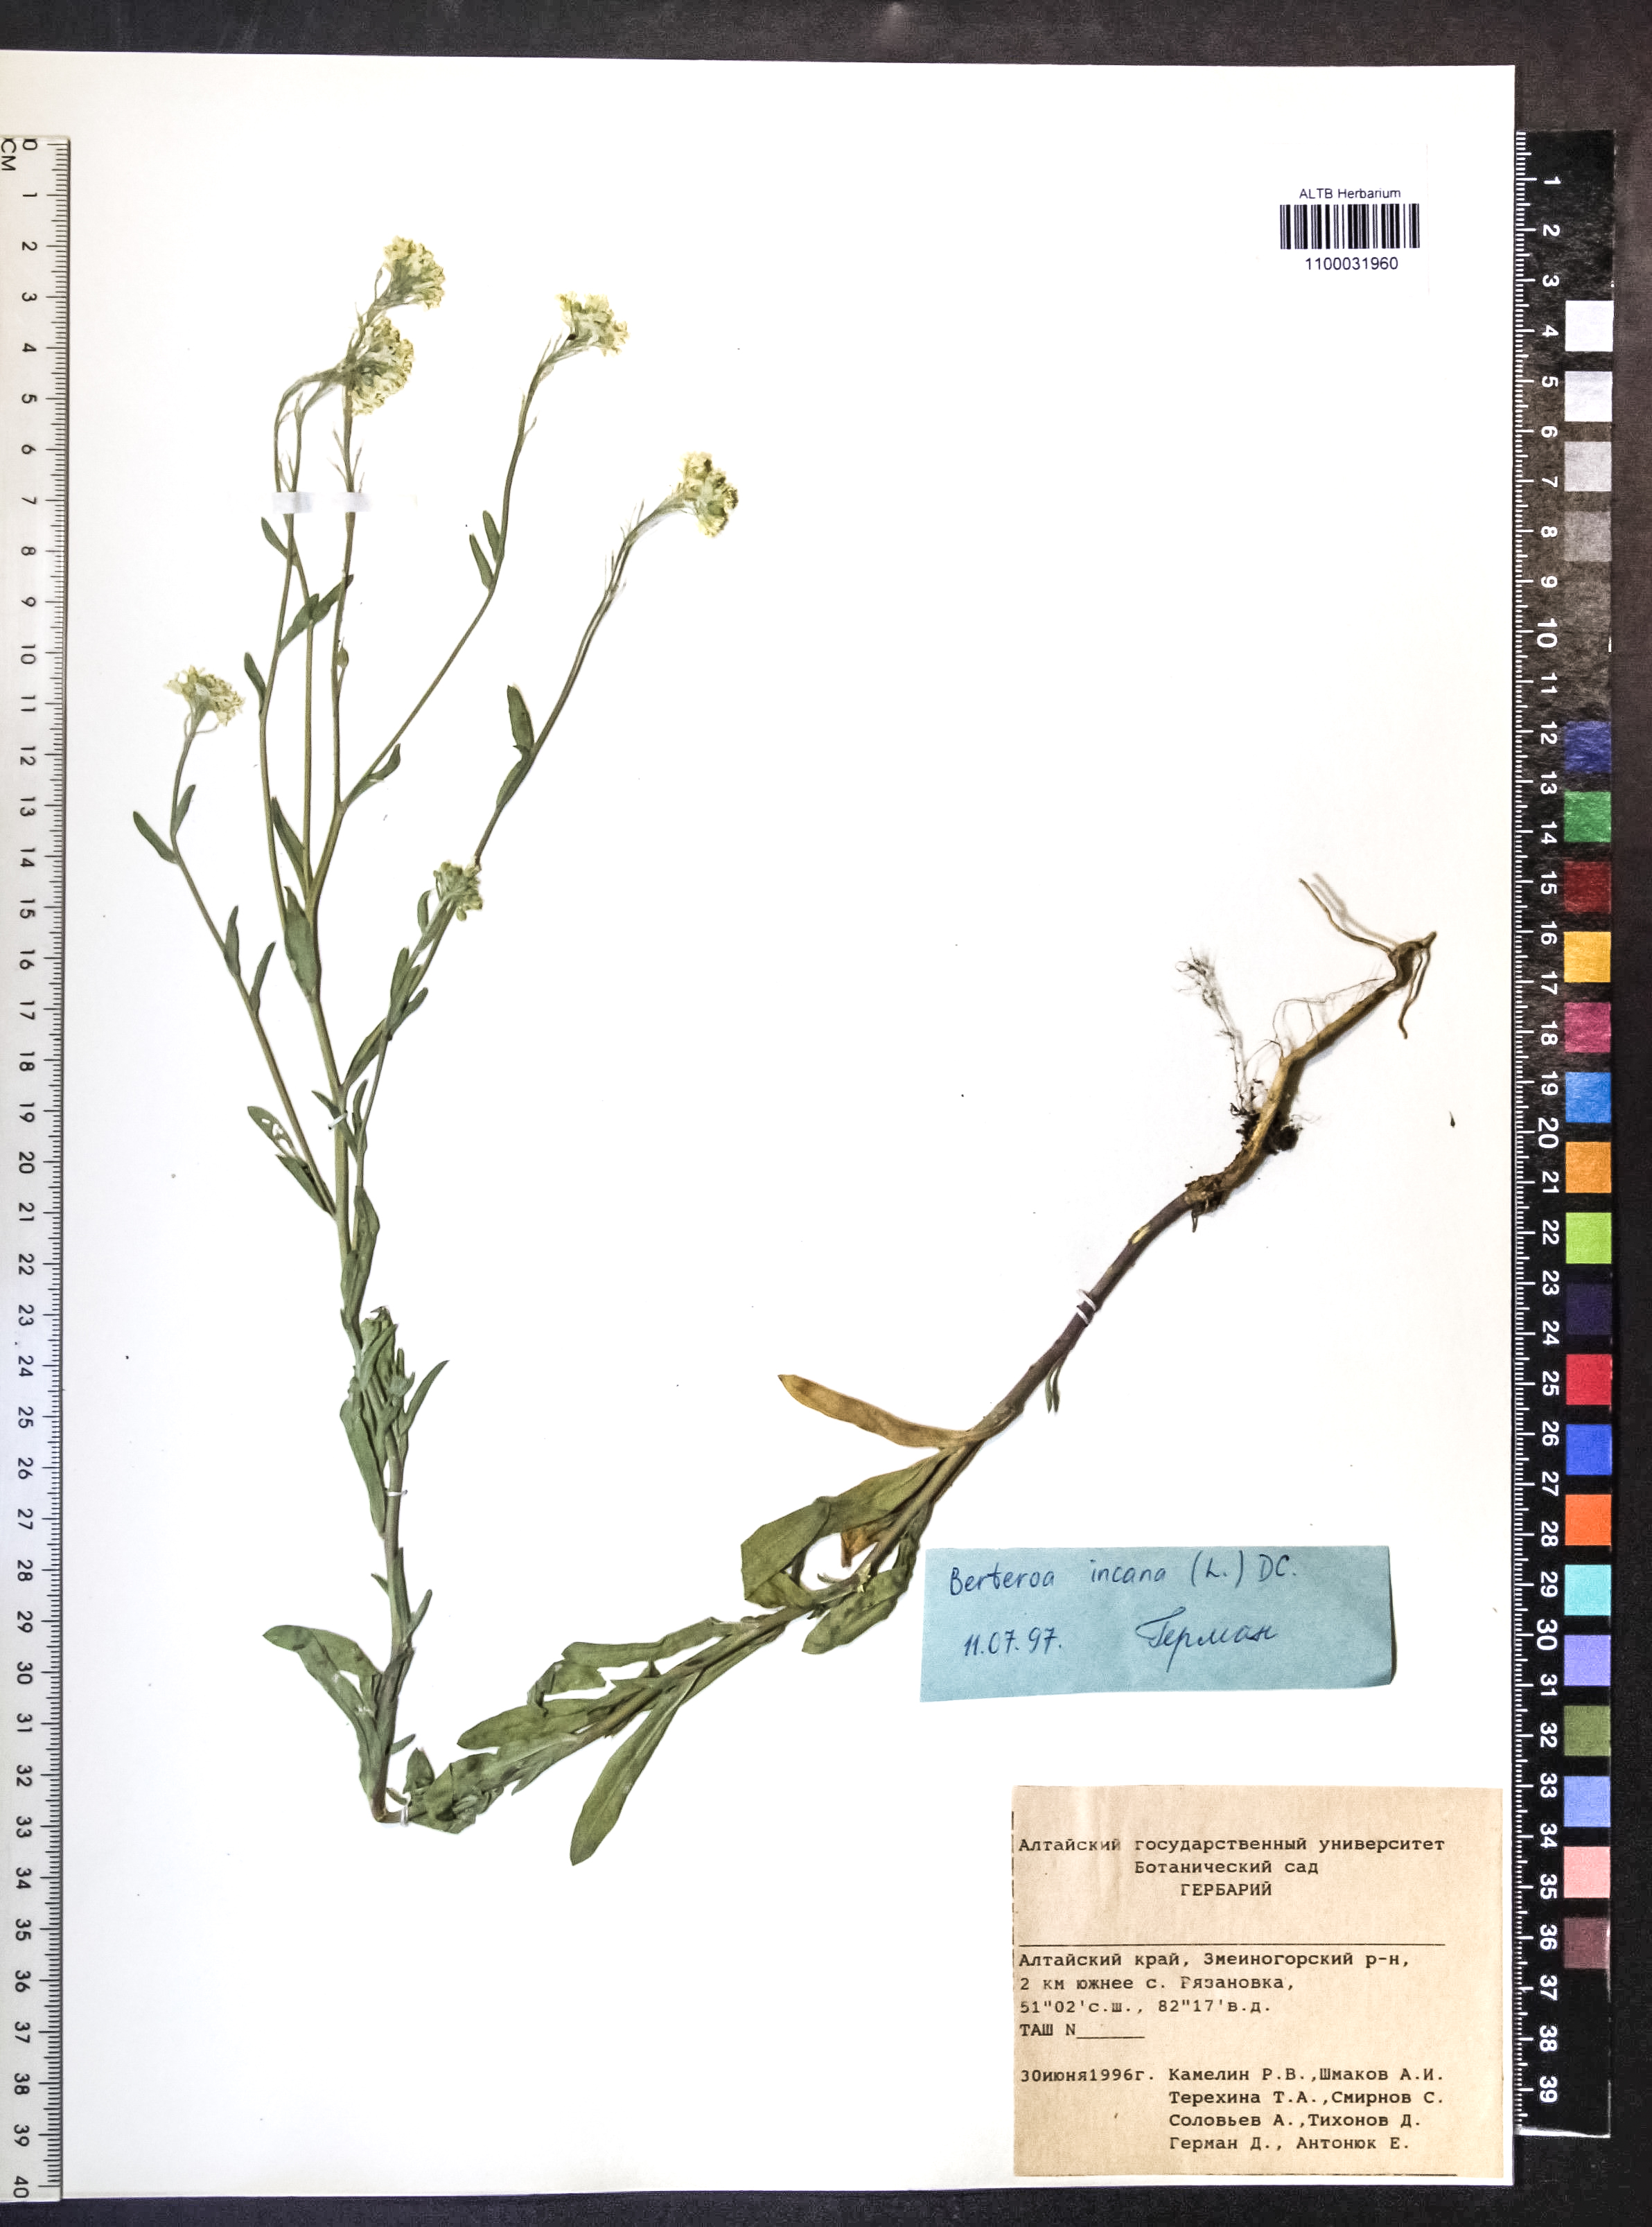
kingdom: Plantae
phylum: Tracheophyta
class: Magnoliopsida
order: Brassicales
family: Brassicaceae
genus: Berteroa
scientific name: Berteroa incana
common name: Hoary alison
